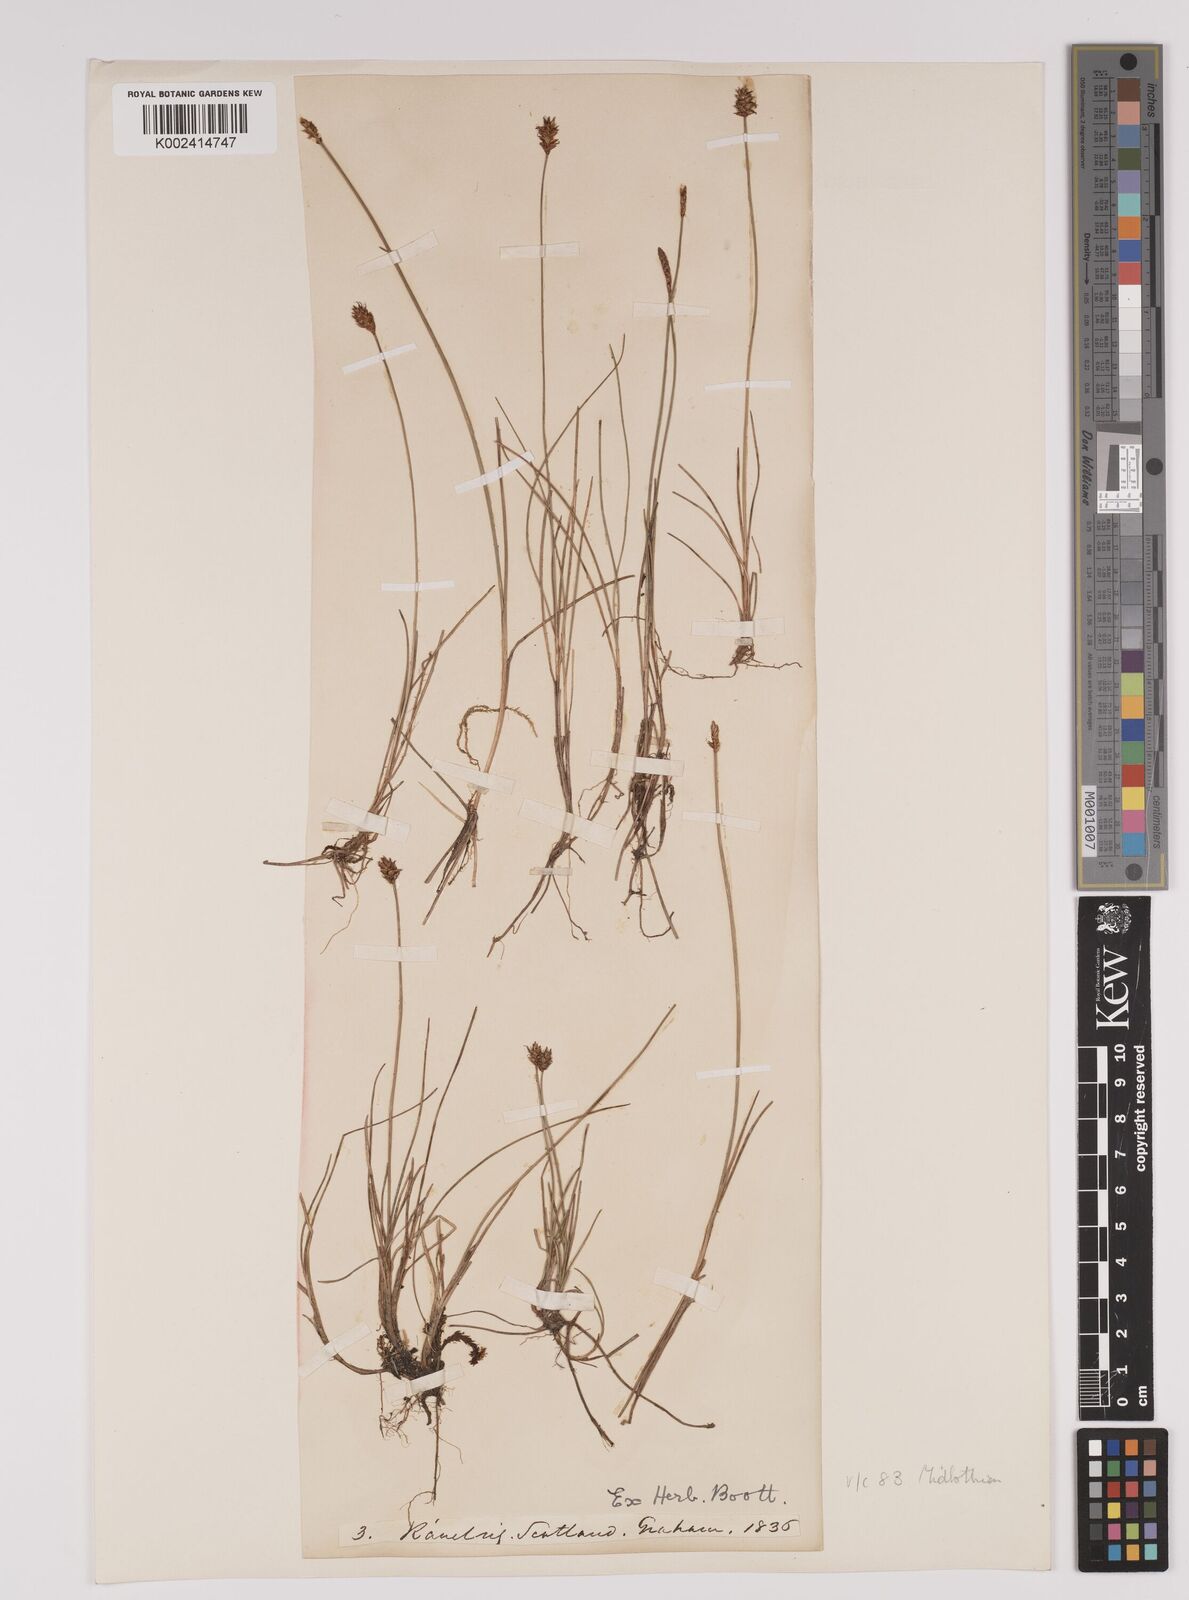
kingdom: Plantae
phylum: Tracheophyta
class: Liliopsida
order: Poales
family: Cyperaceae
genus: Carex
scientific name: Carex dioica
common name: Dioecious sedge
